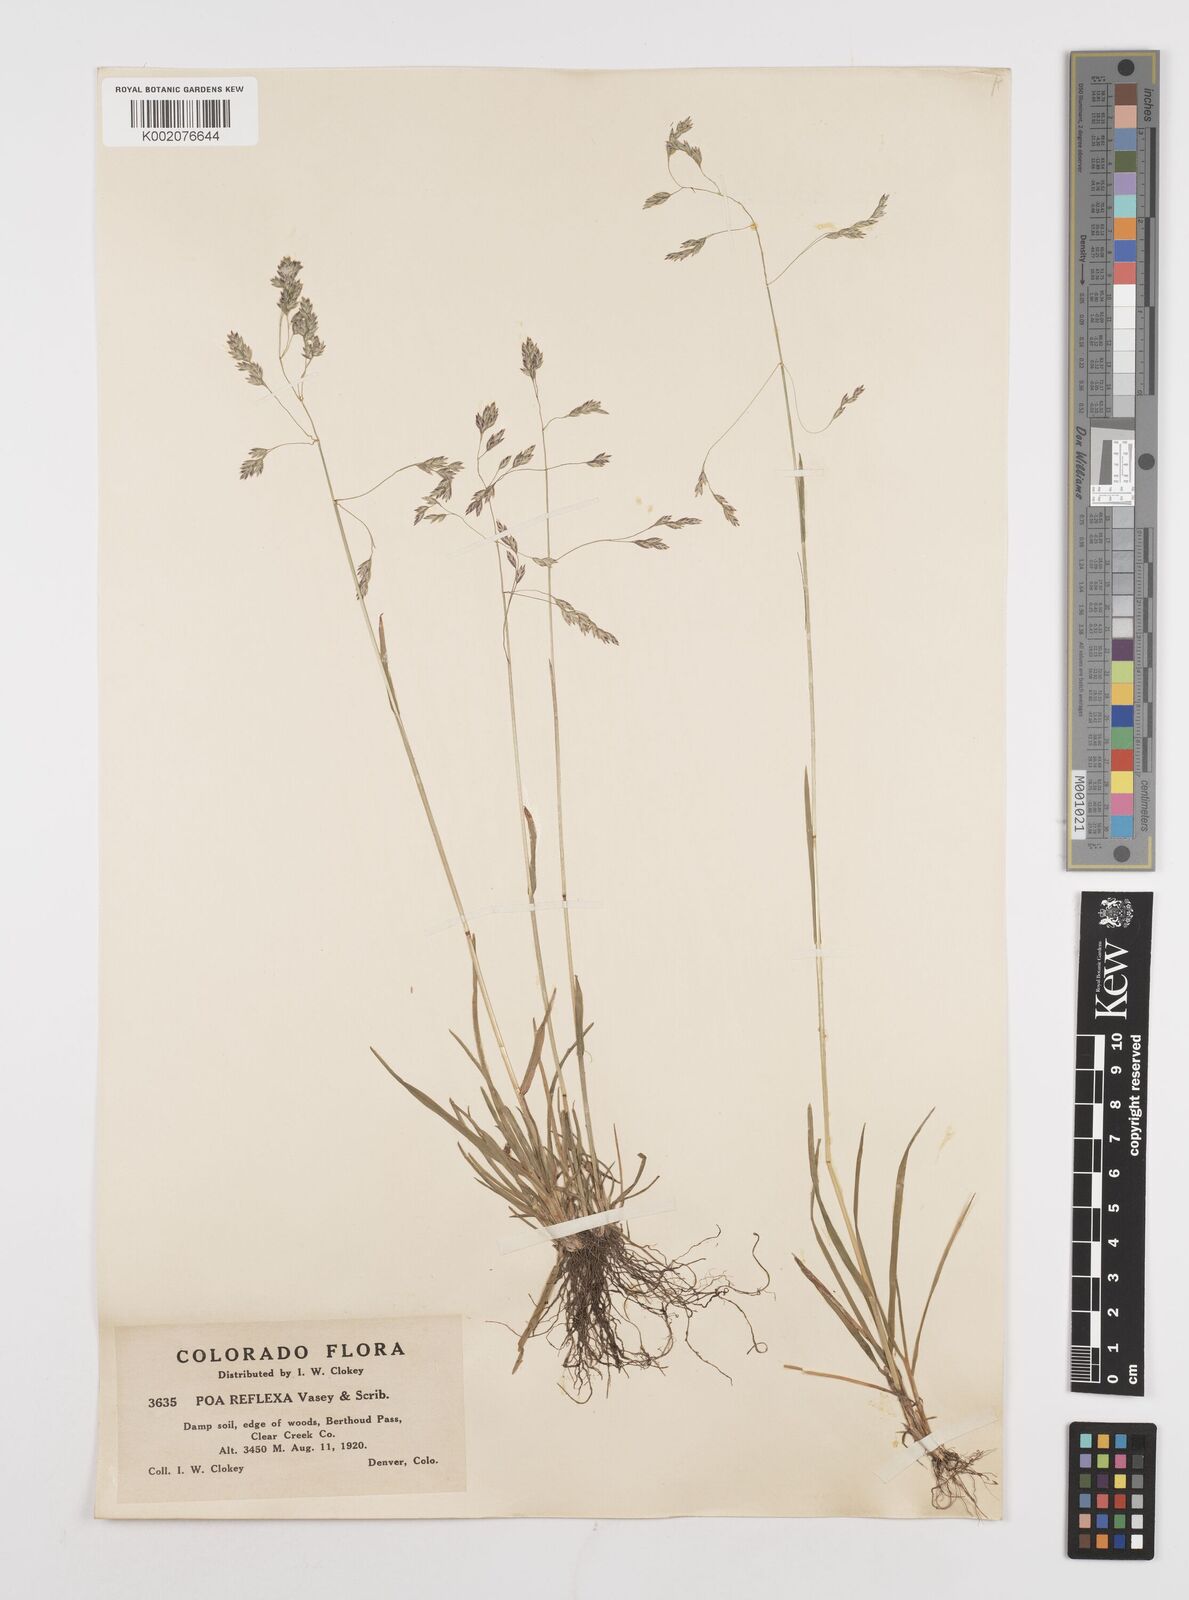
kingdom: Plantae
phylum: Tracheophyta
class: Liliopsida
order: Poales
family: Poaceae
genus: Poa
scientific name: Poa reflexa
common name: Nodding bluegrass
